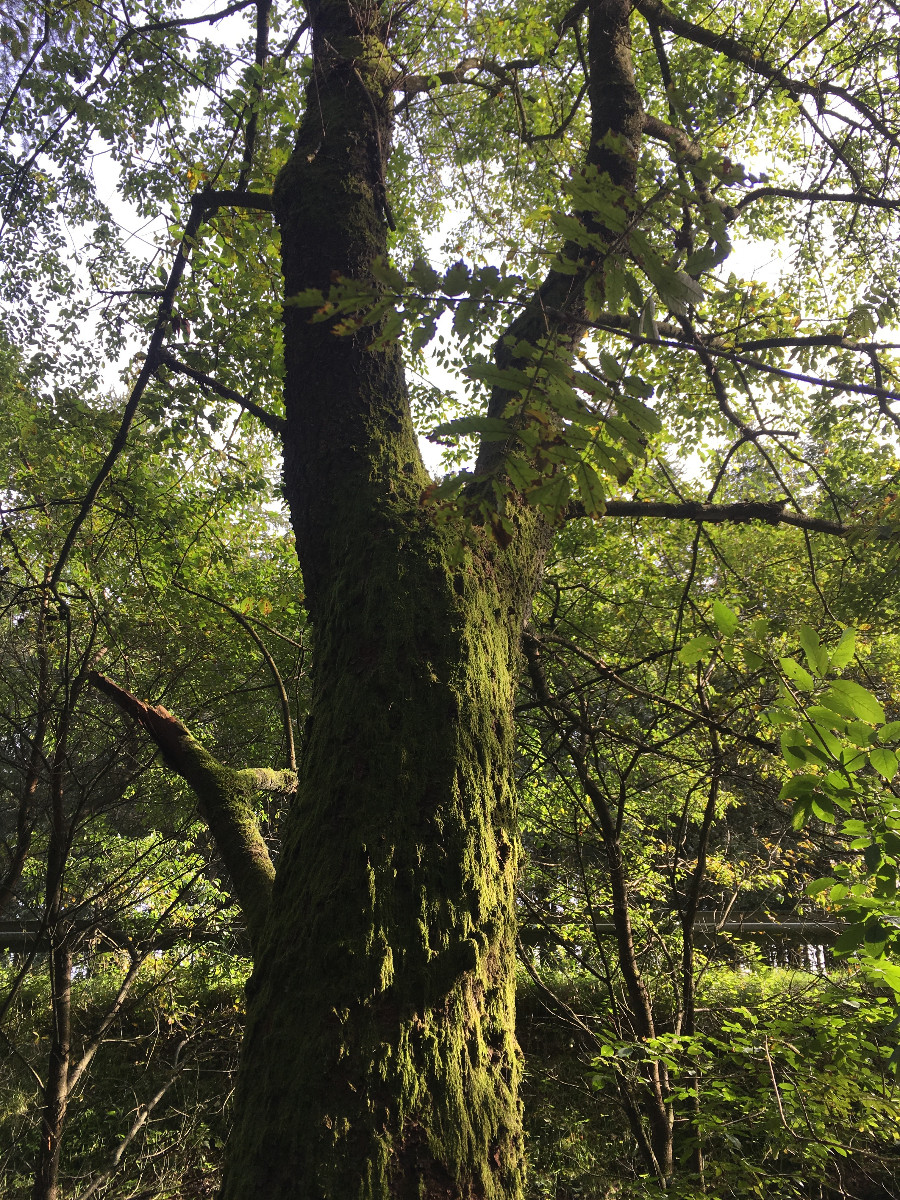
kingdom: Fungi
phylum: Basidiomycota
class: Agaricomycetes
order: Agaricales
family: Physalacriaceae
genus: Strobilurus
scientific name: Strobilurus esculentus
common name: gran-koglehat
